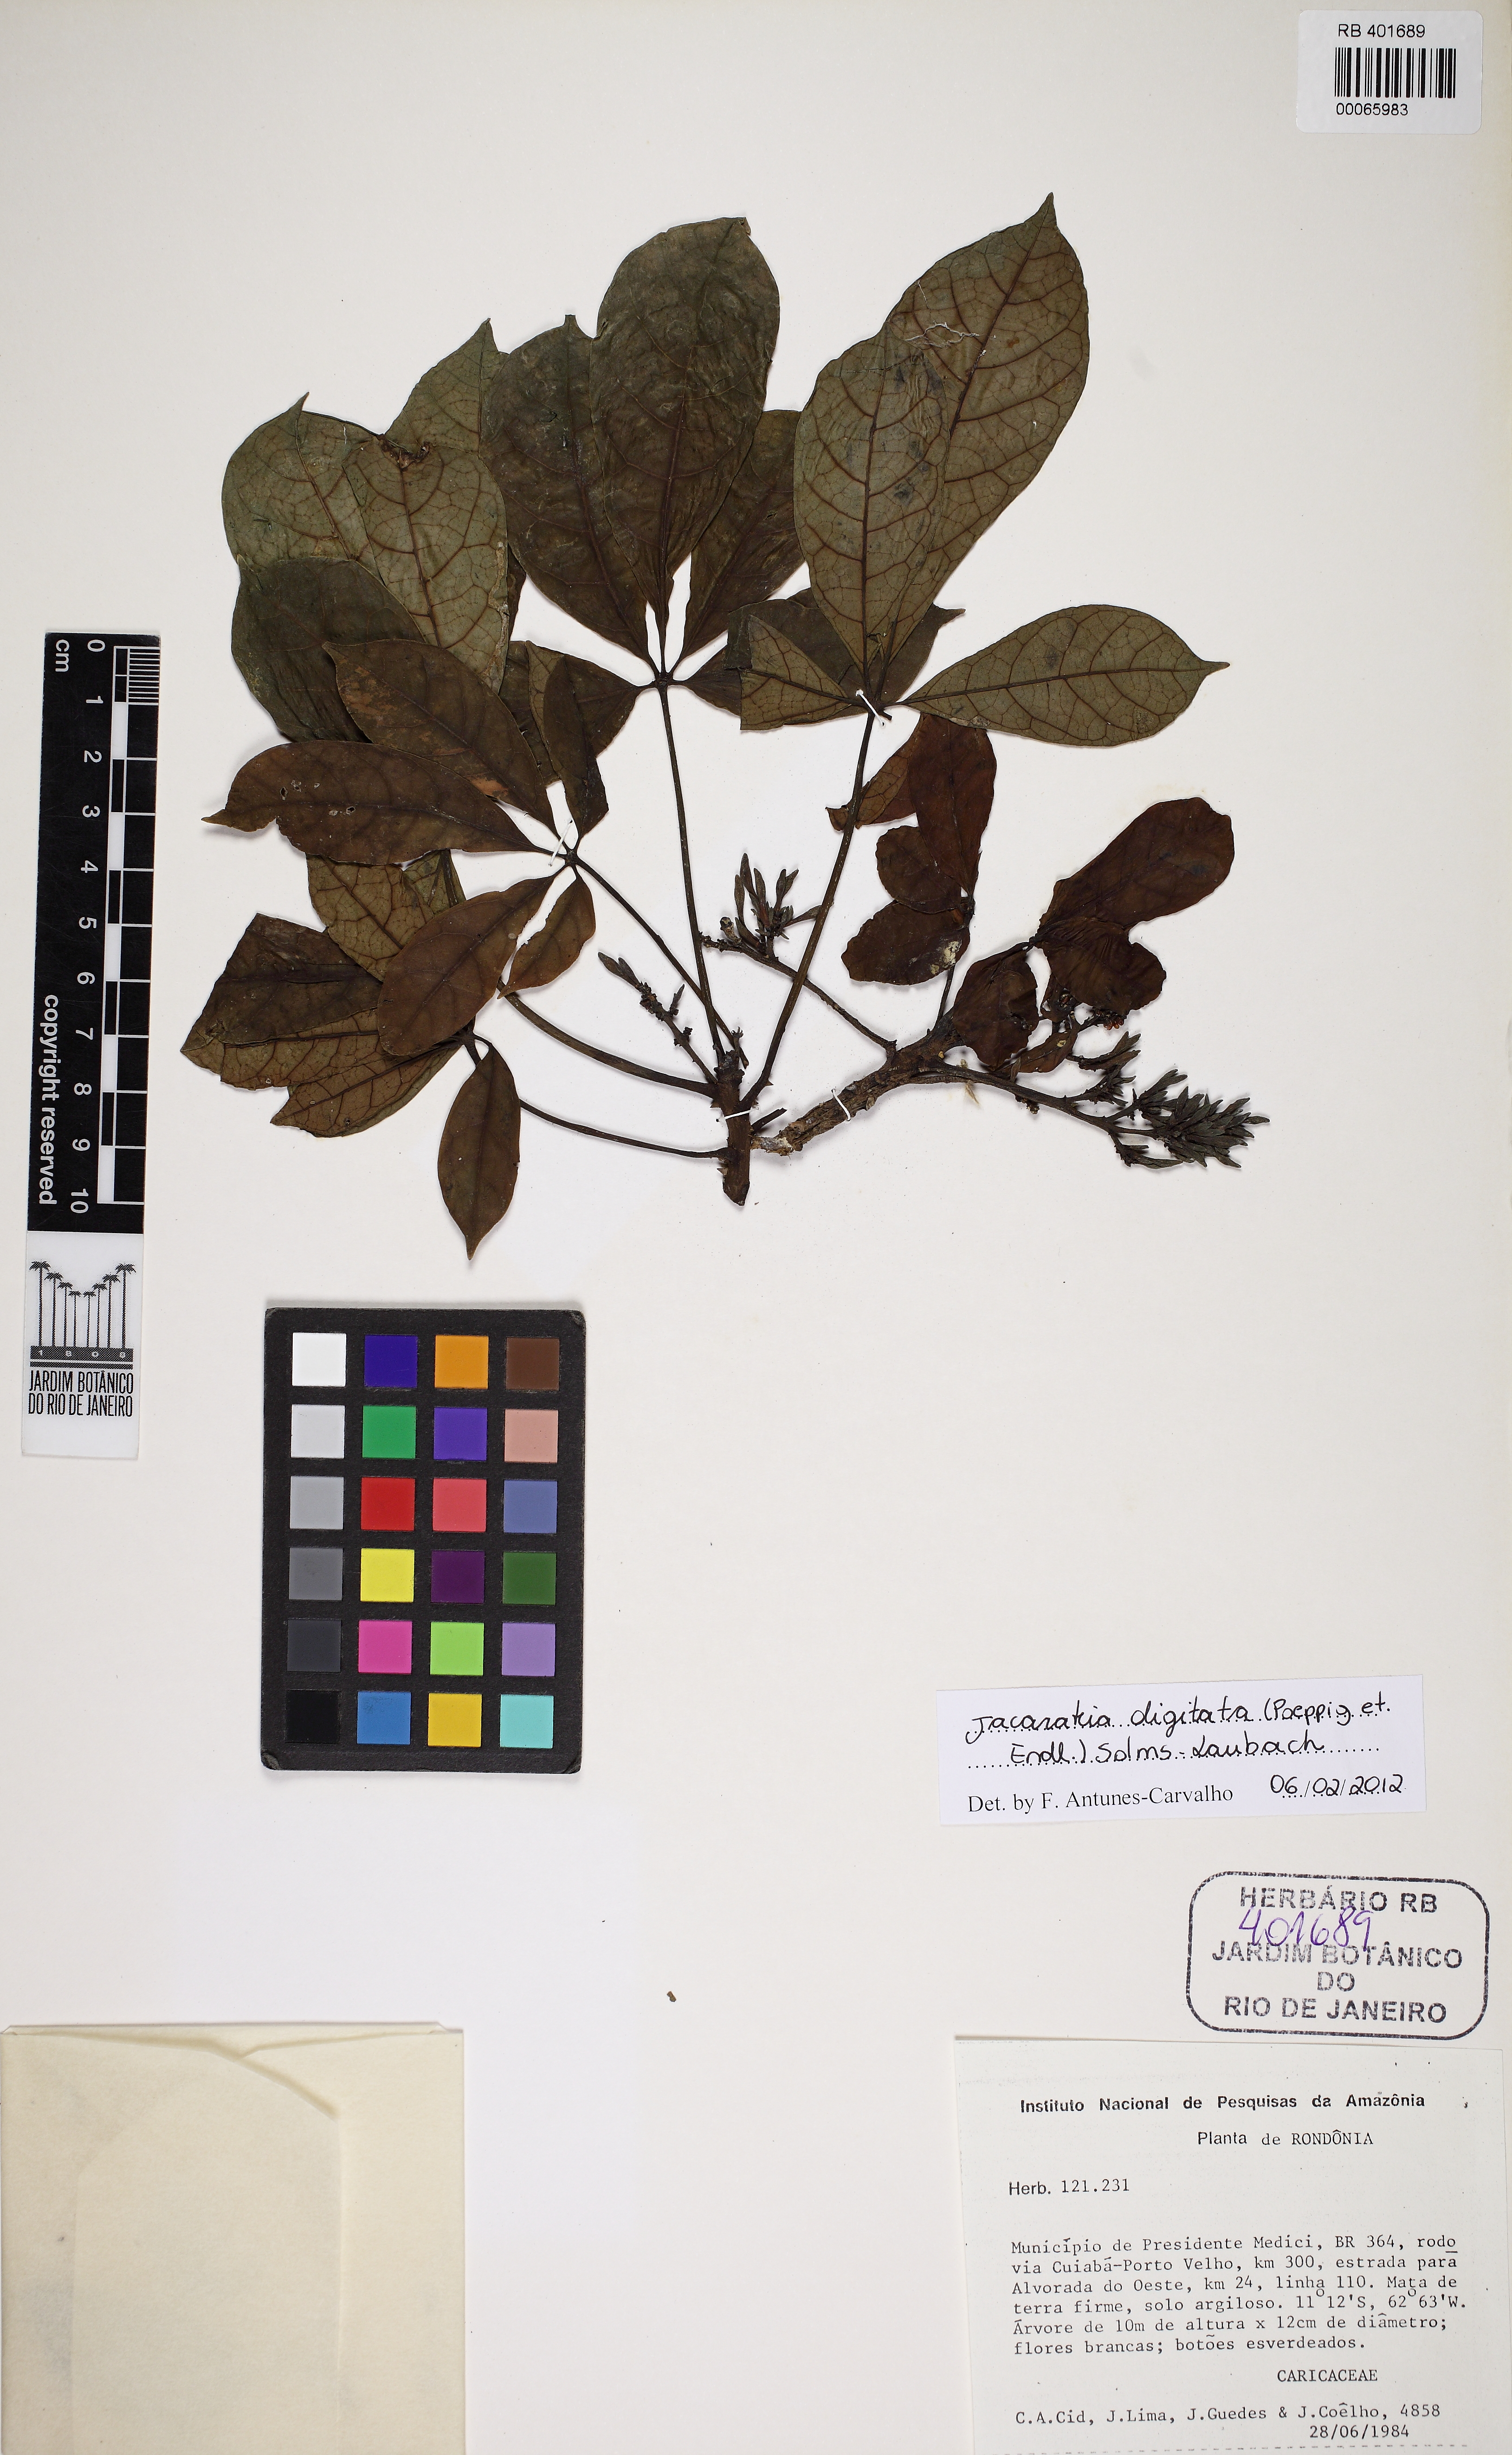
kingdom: Plantae
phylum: Tracheophyta
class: Magnoliopsida
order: Brassicales
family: Caricaceae
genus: Jacaratia
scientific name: Jacaratia digitata
